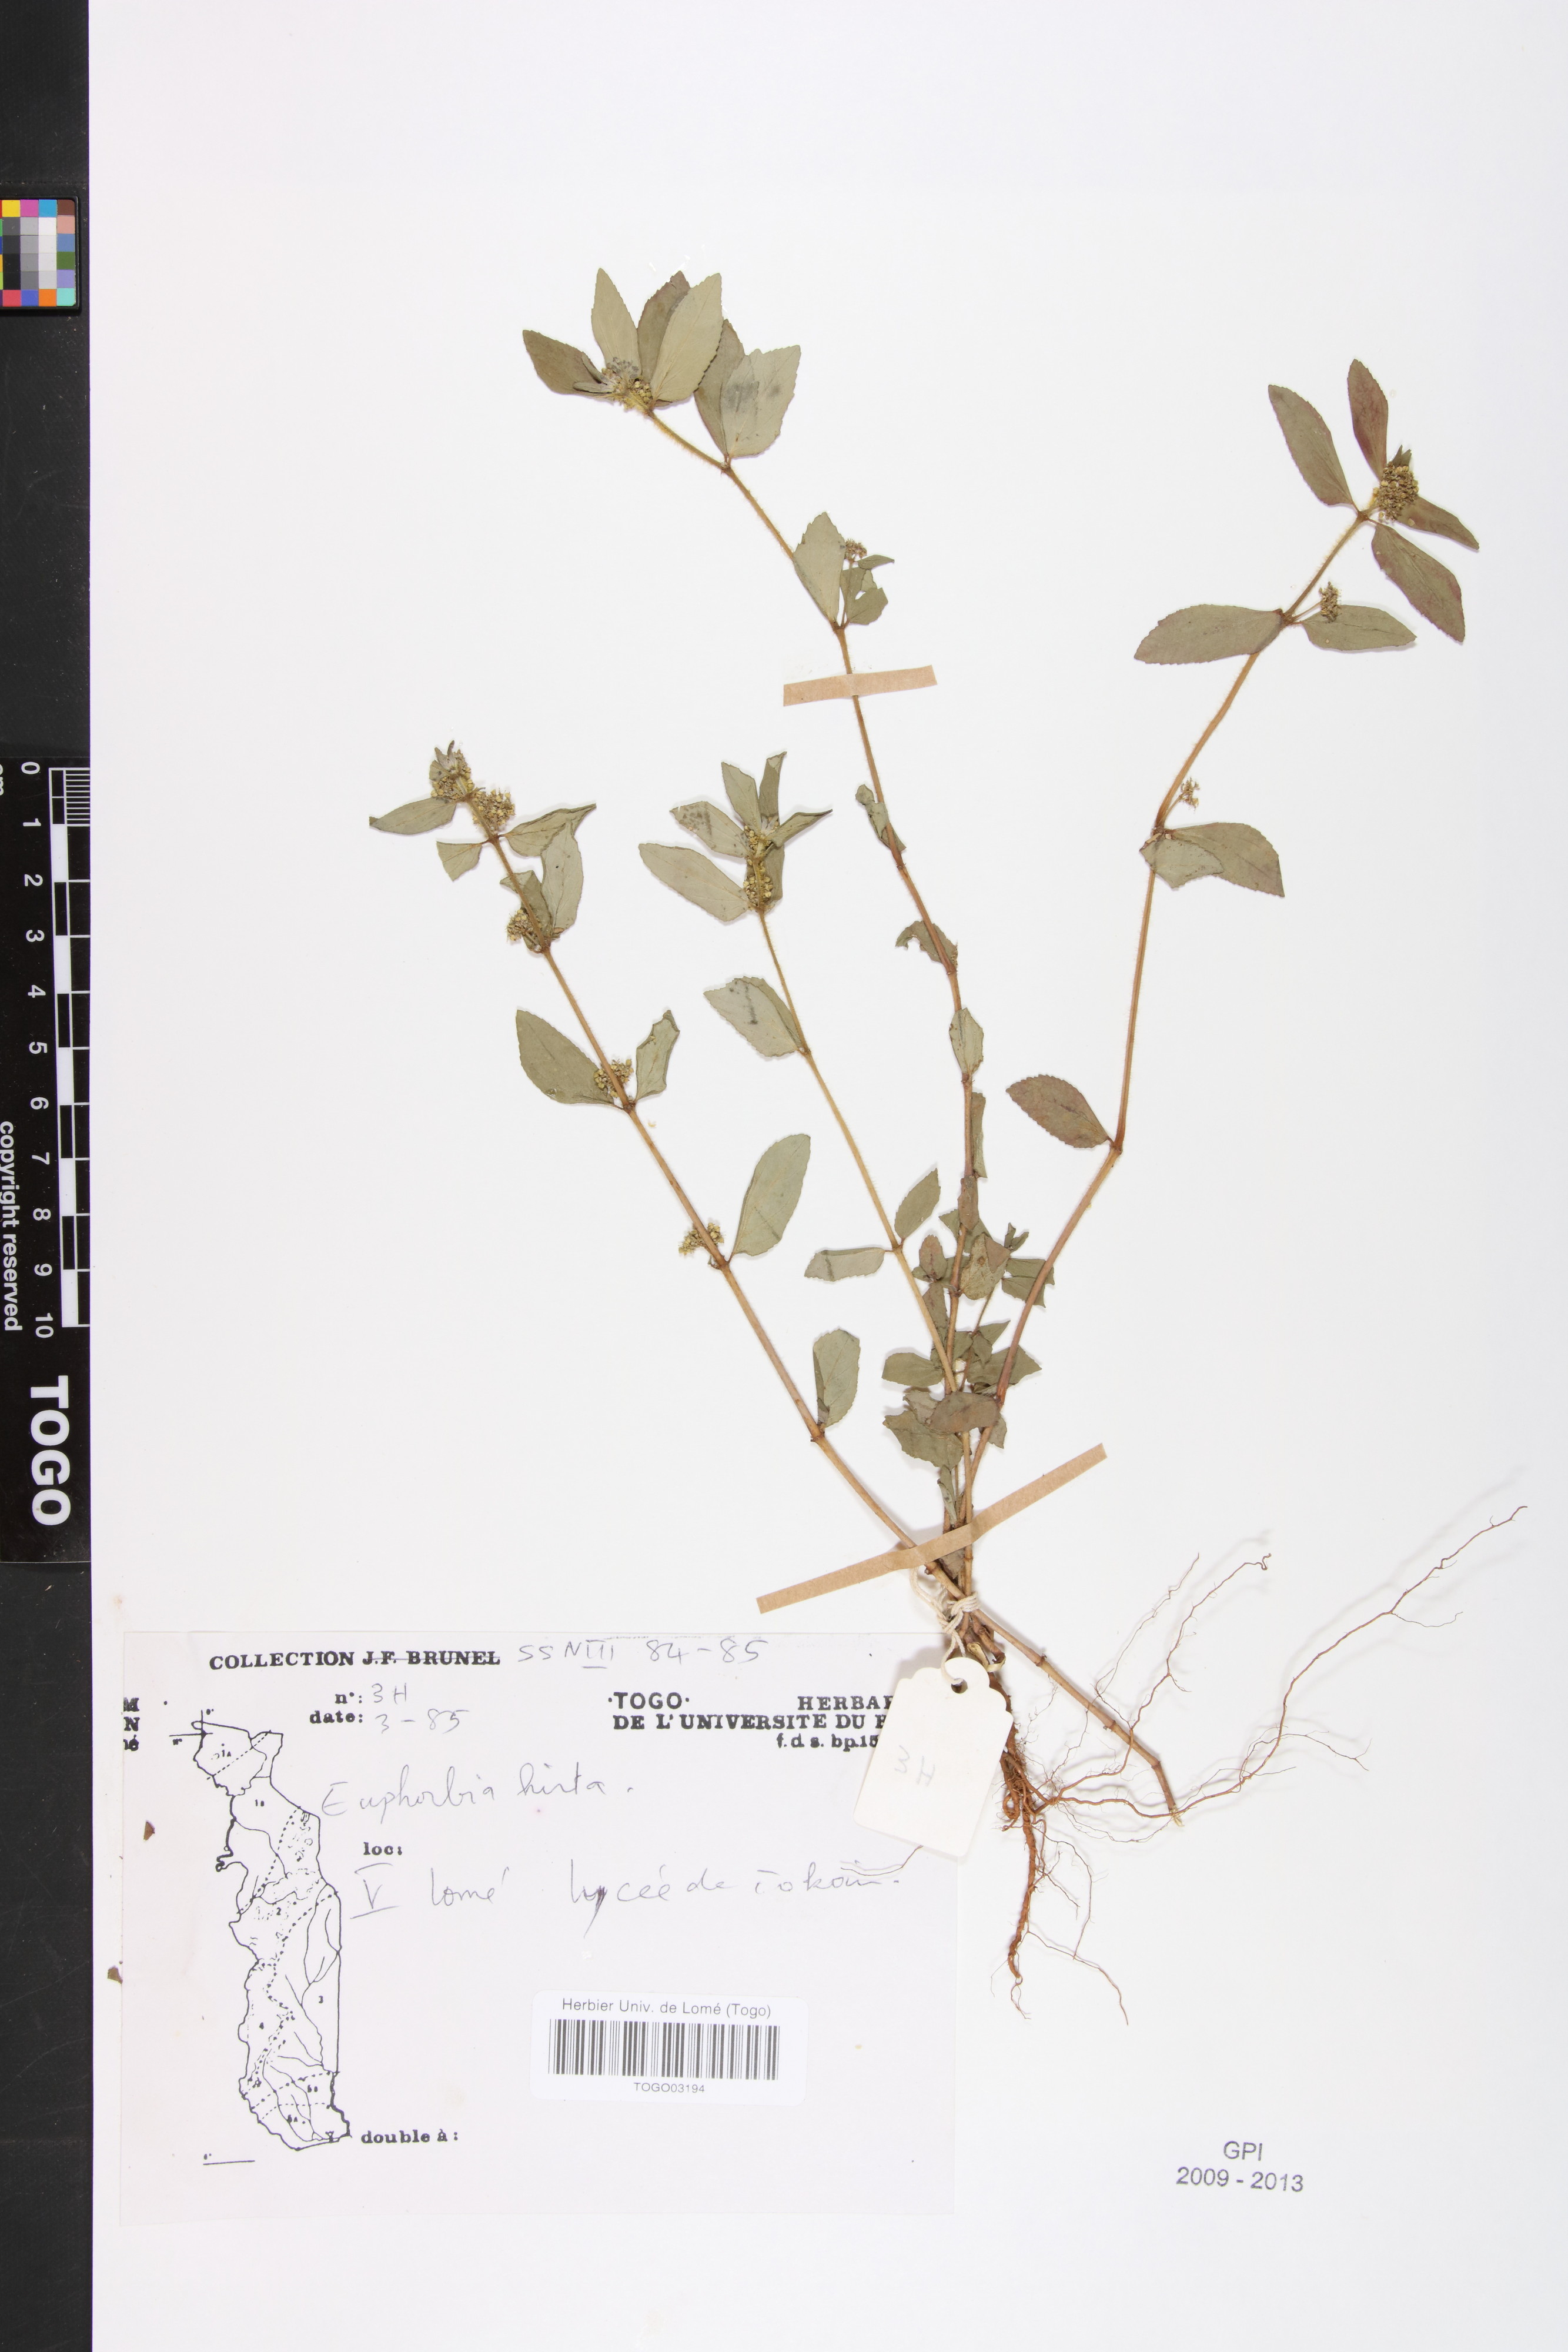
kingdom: Plantae
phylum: Tracheophyta
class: Magnoliopsida
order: Malpighiales
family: Euphorbiaceae
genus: Euphorbia
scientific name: Euphorbia hirta
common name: Pillpod sandmat
